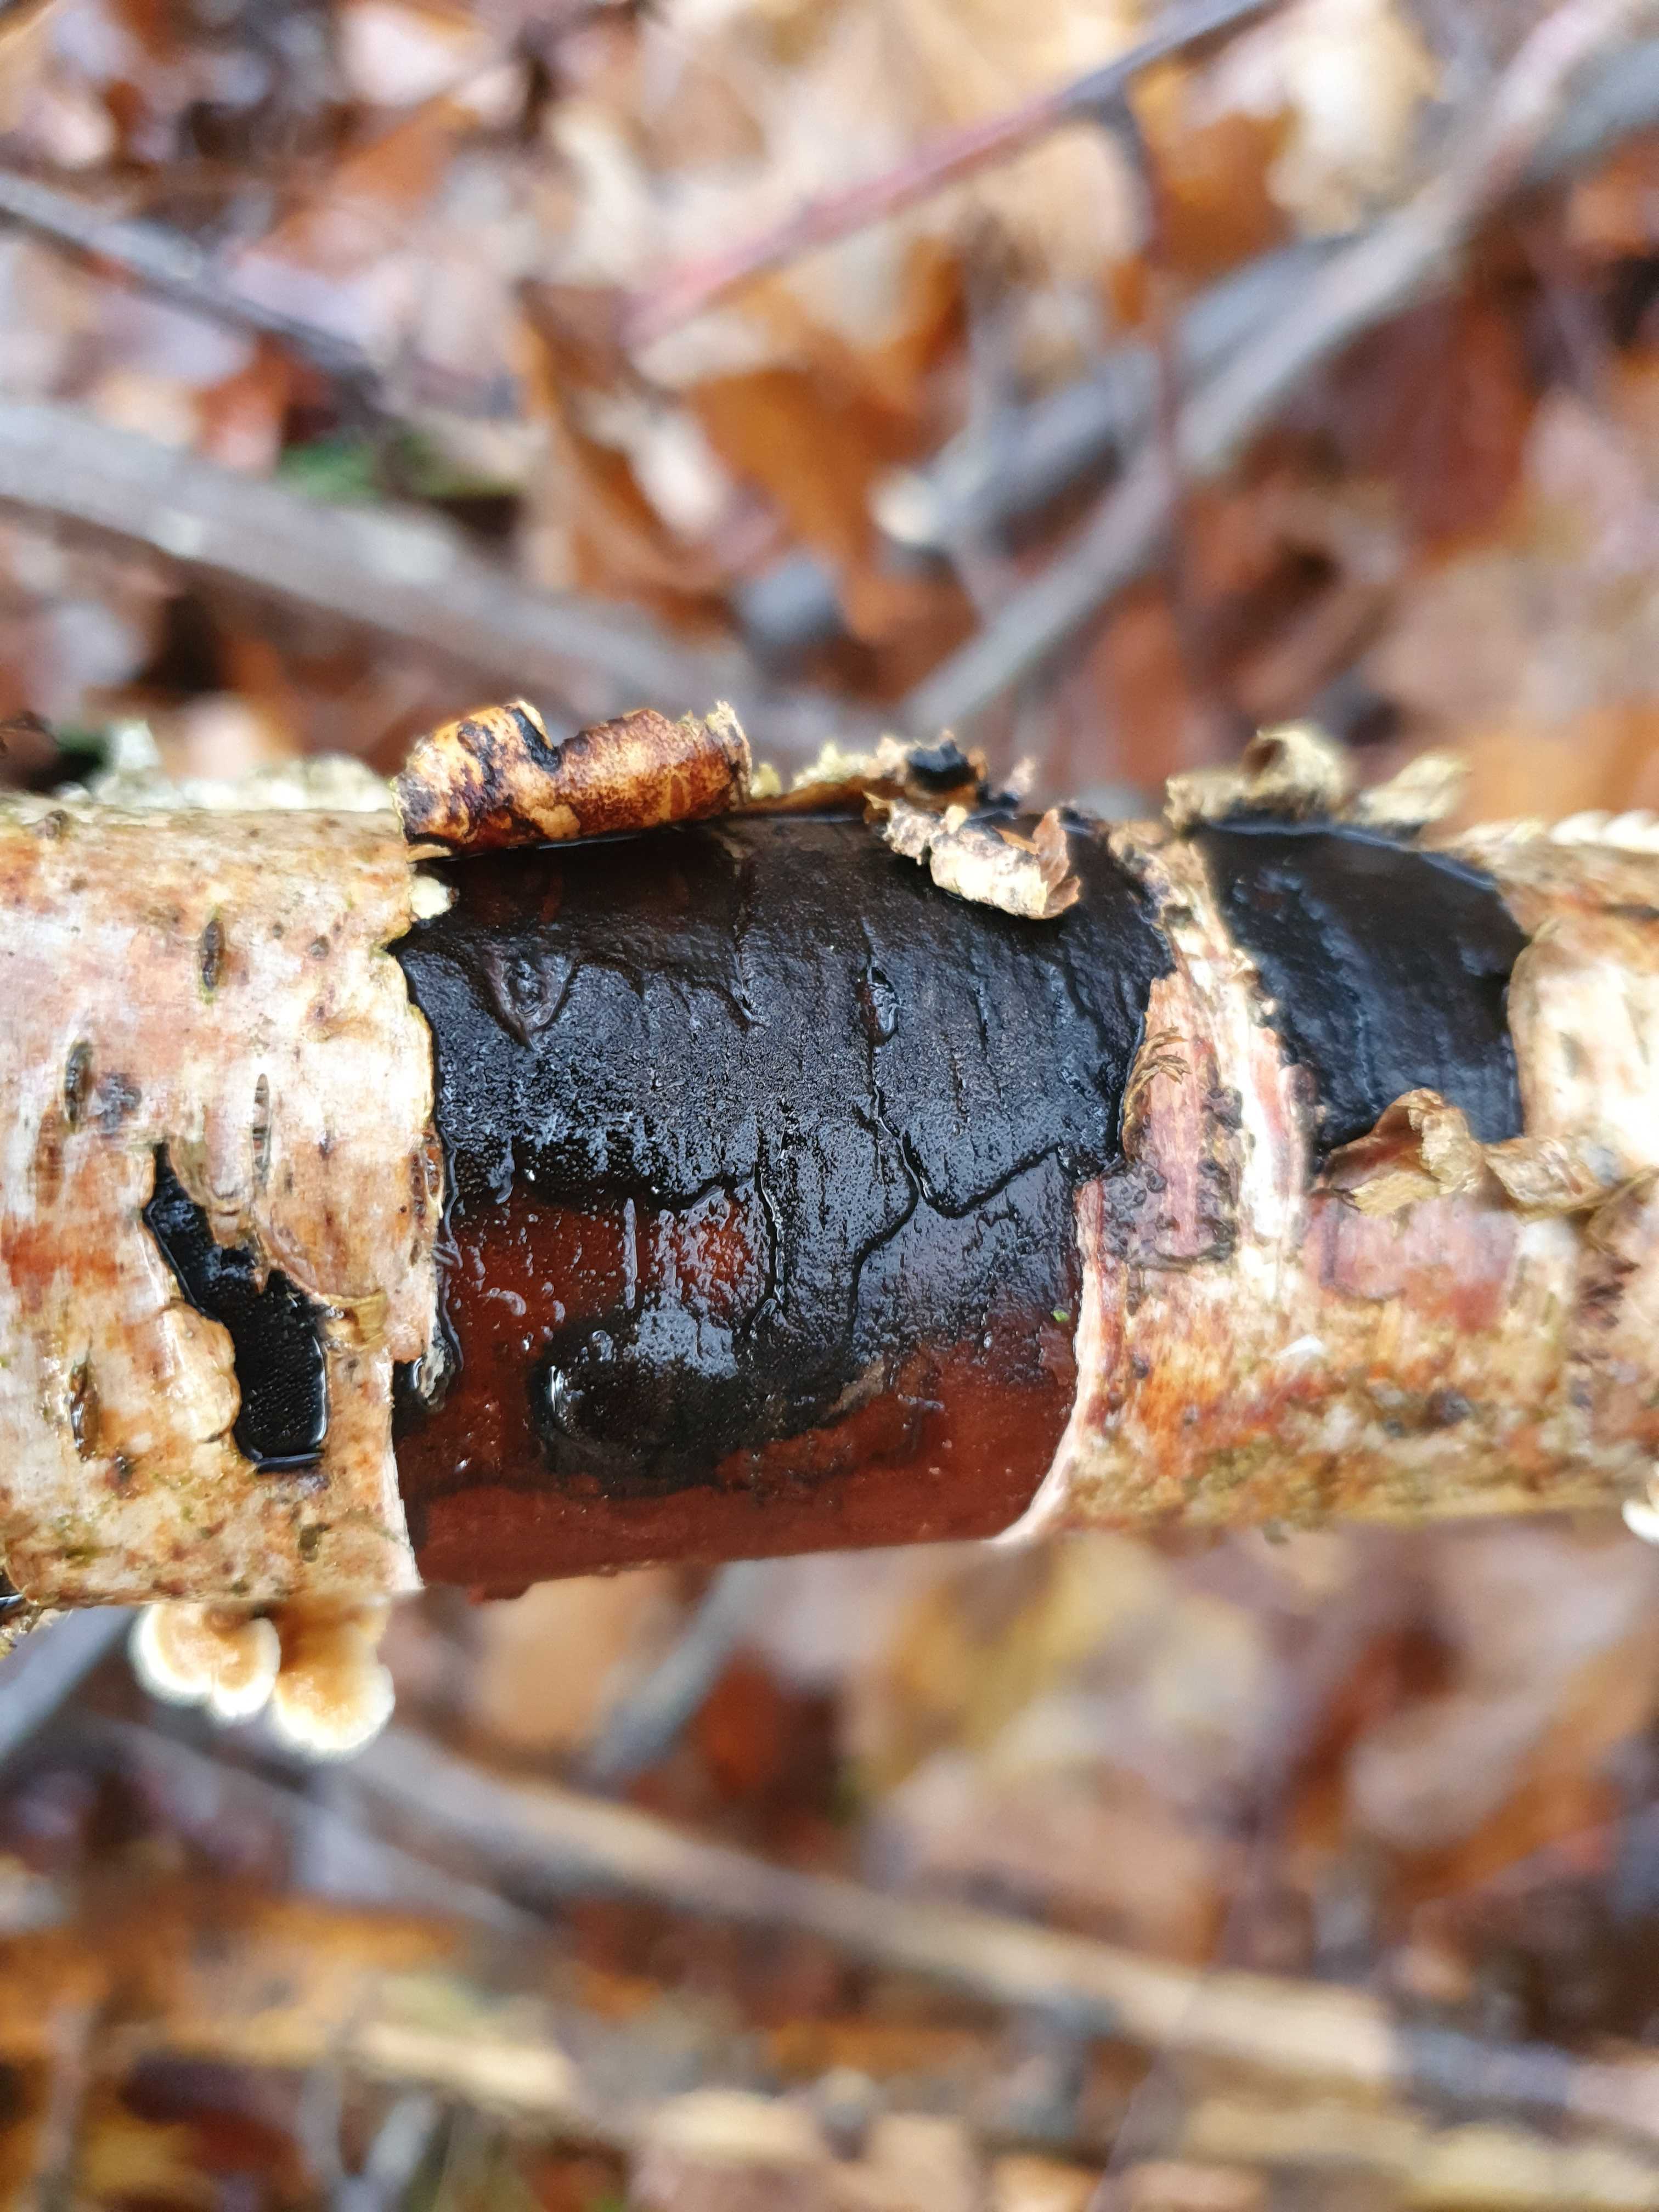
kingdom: Fungi
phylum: Ascomycota
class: Sordariomycetes
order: Xylariales
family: Diatrypaceae
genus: Diatrype
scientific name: Diatrype
